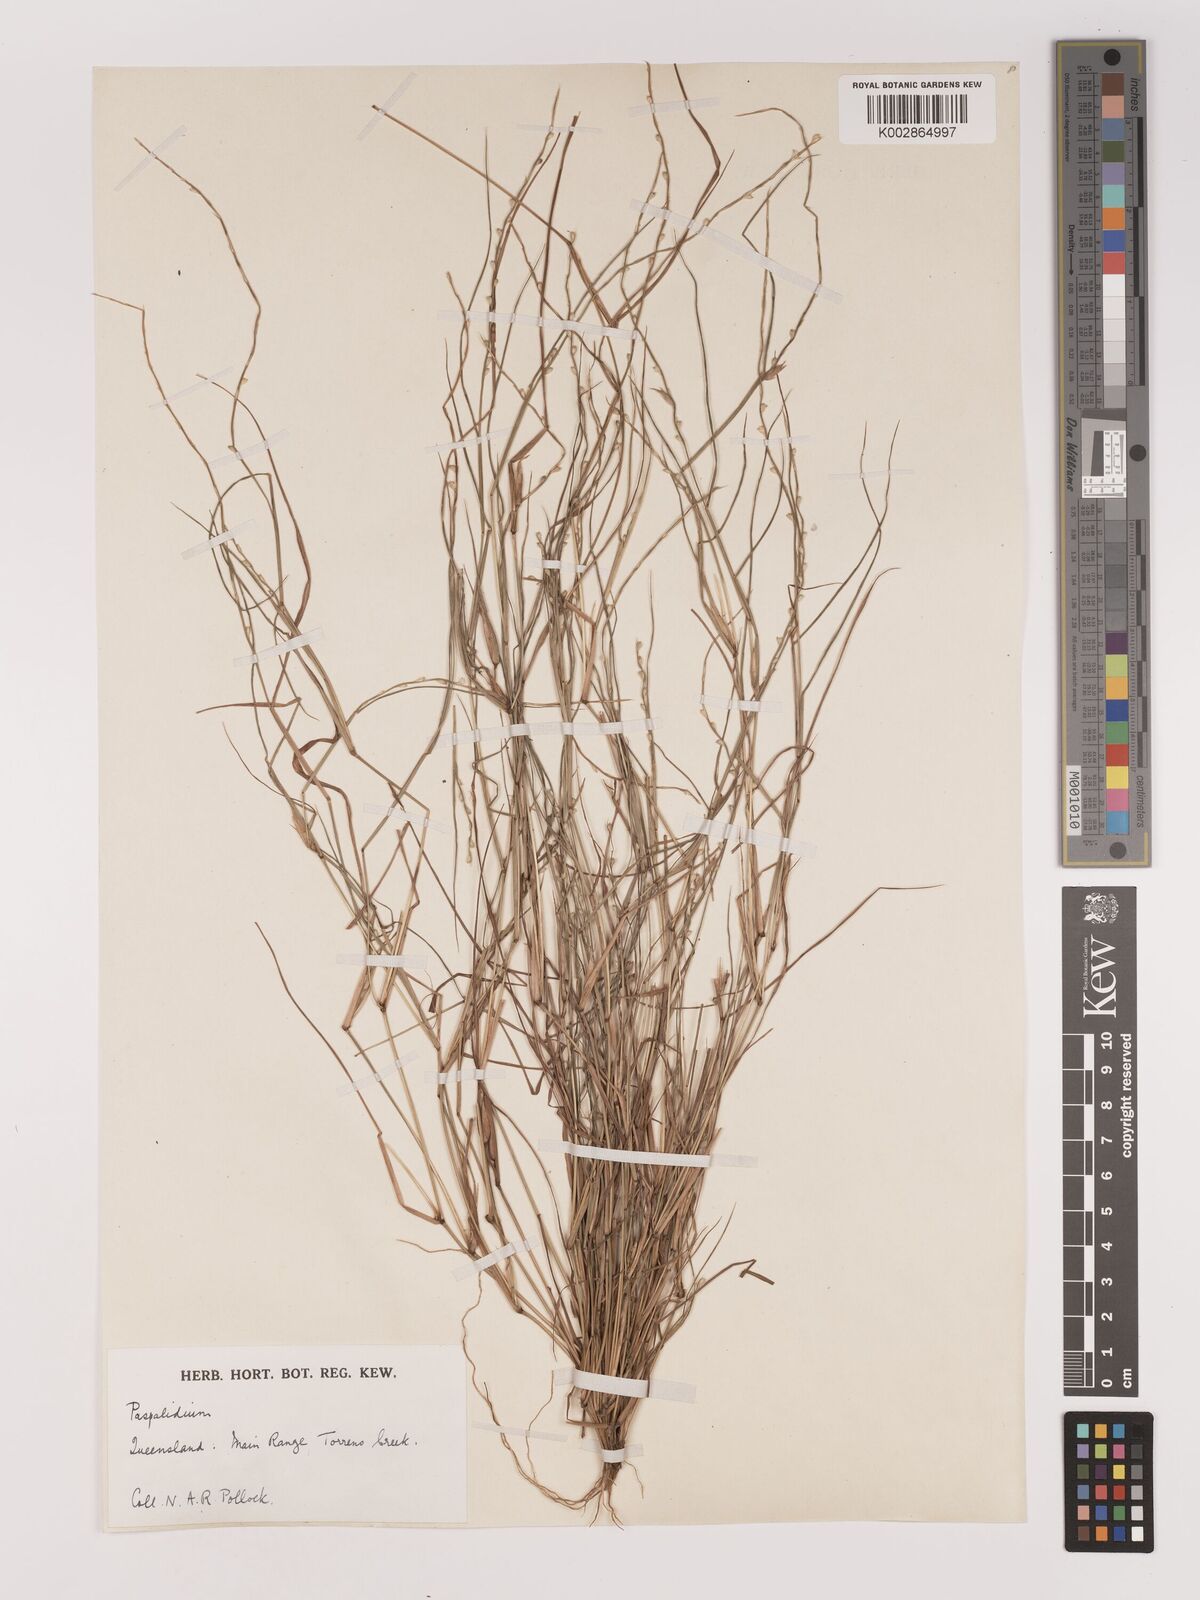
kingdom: Plantae
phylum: Tracheophyta
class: Liliopsida
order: Poales
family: Poaceae
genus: Setaria
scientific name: Setaria
